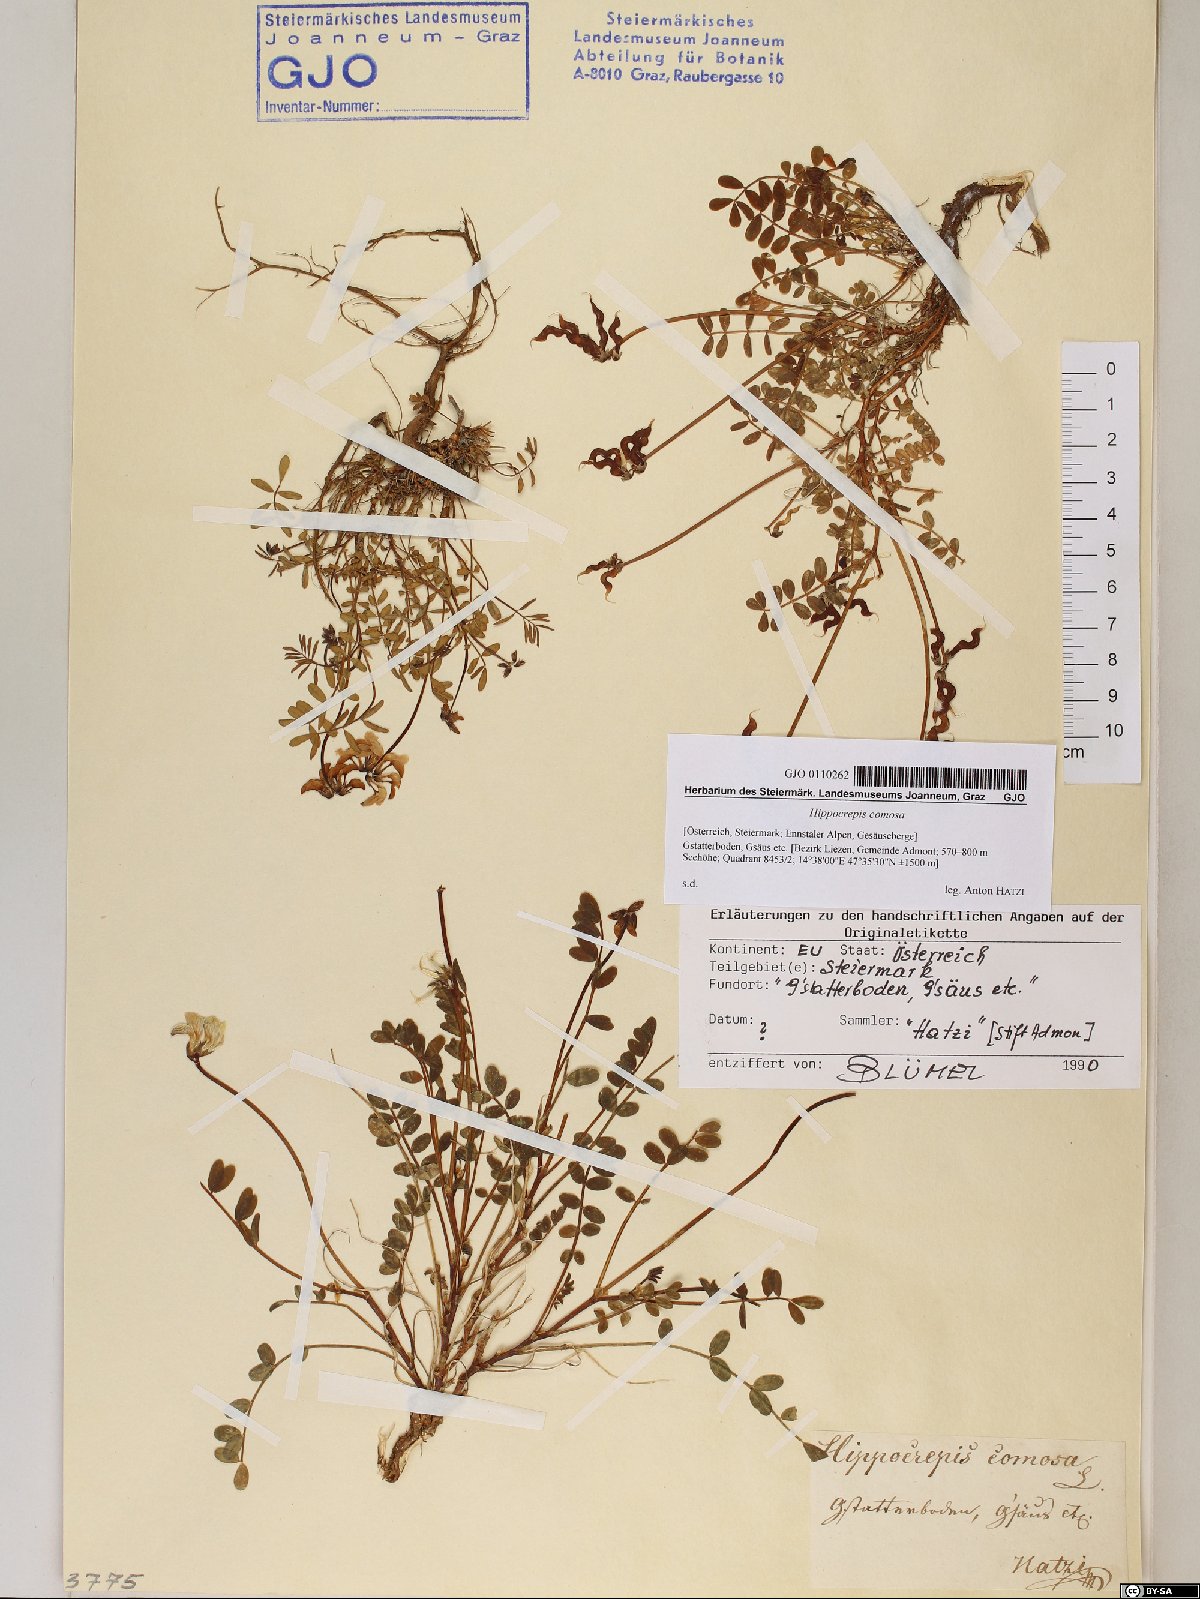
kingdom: Plantae
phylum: Tracheophyta
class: Magnoliopsida
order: Fabales
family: Fabaceae
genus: Hippocrepis
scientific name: Hippocrepis comosa
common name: Horseshoe vetch
